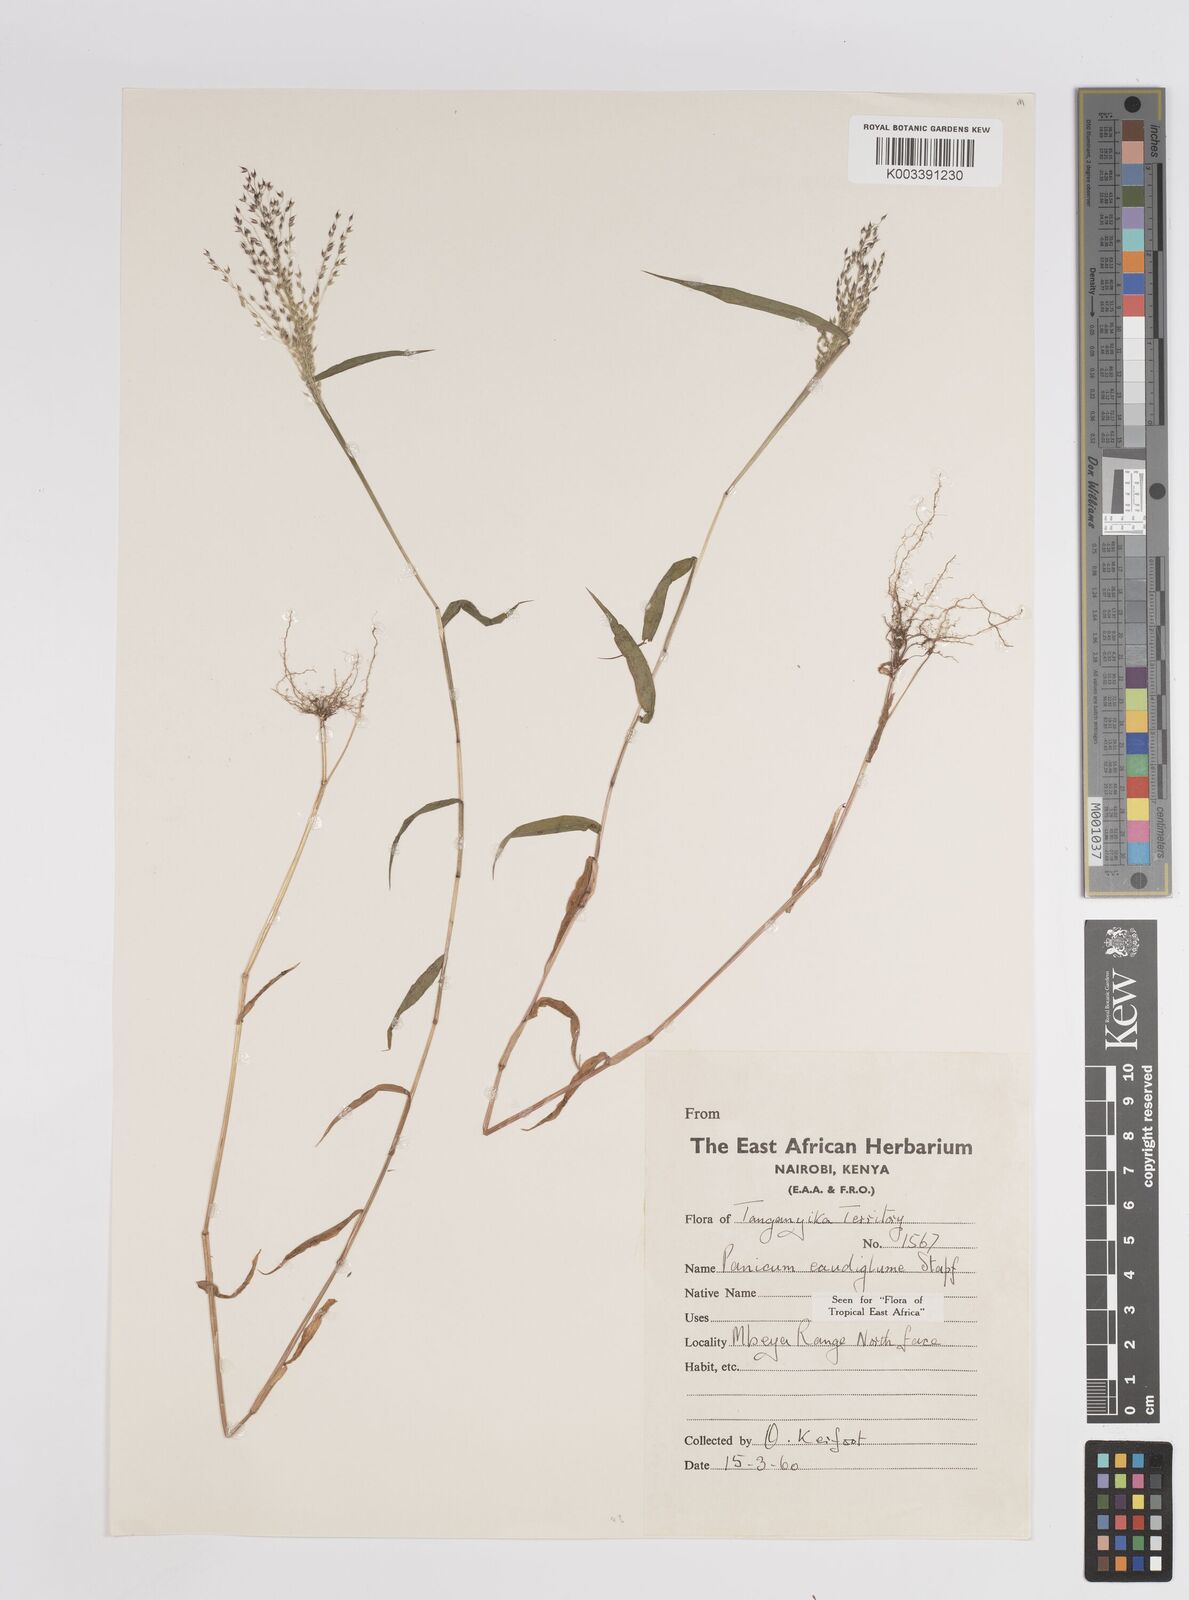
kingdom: Plantae
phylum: Tracheophyta
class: Liliopsida
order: Poales
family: Poaceae
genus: Panicum
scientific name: Panicum delicatulum
